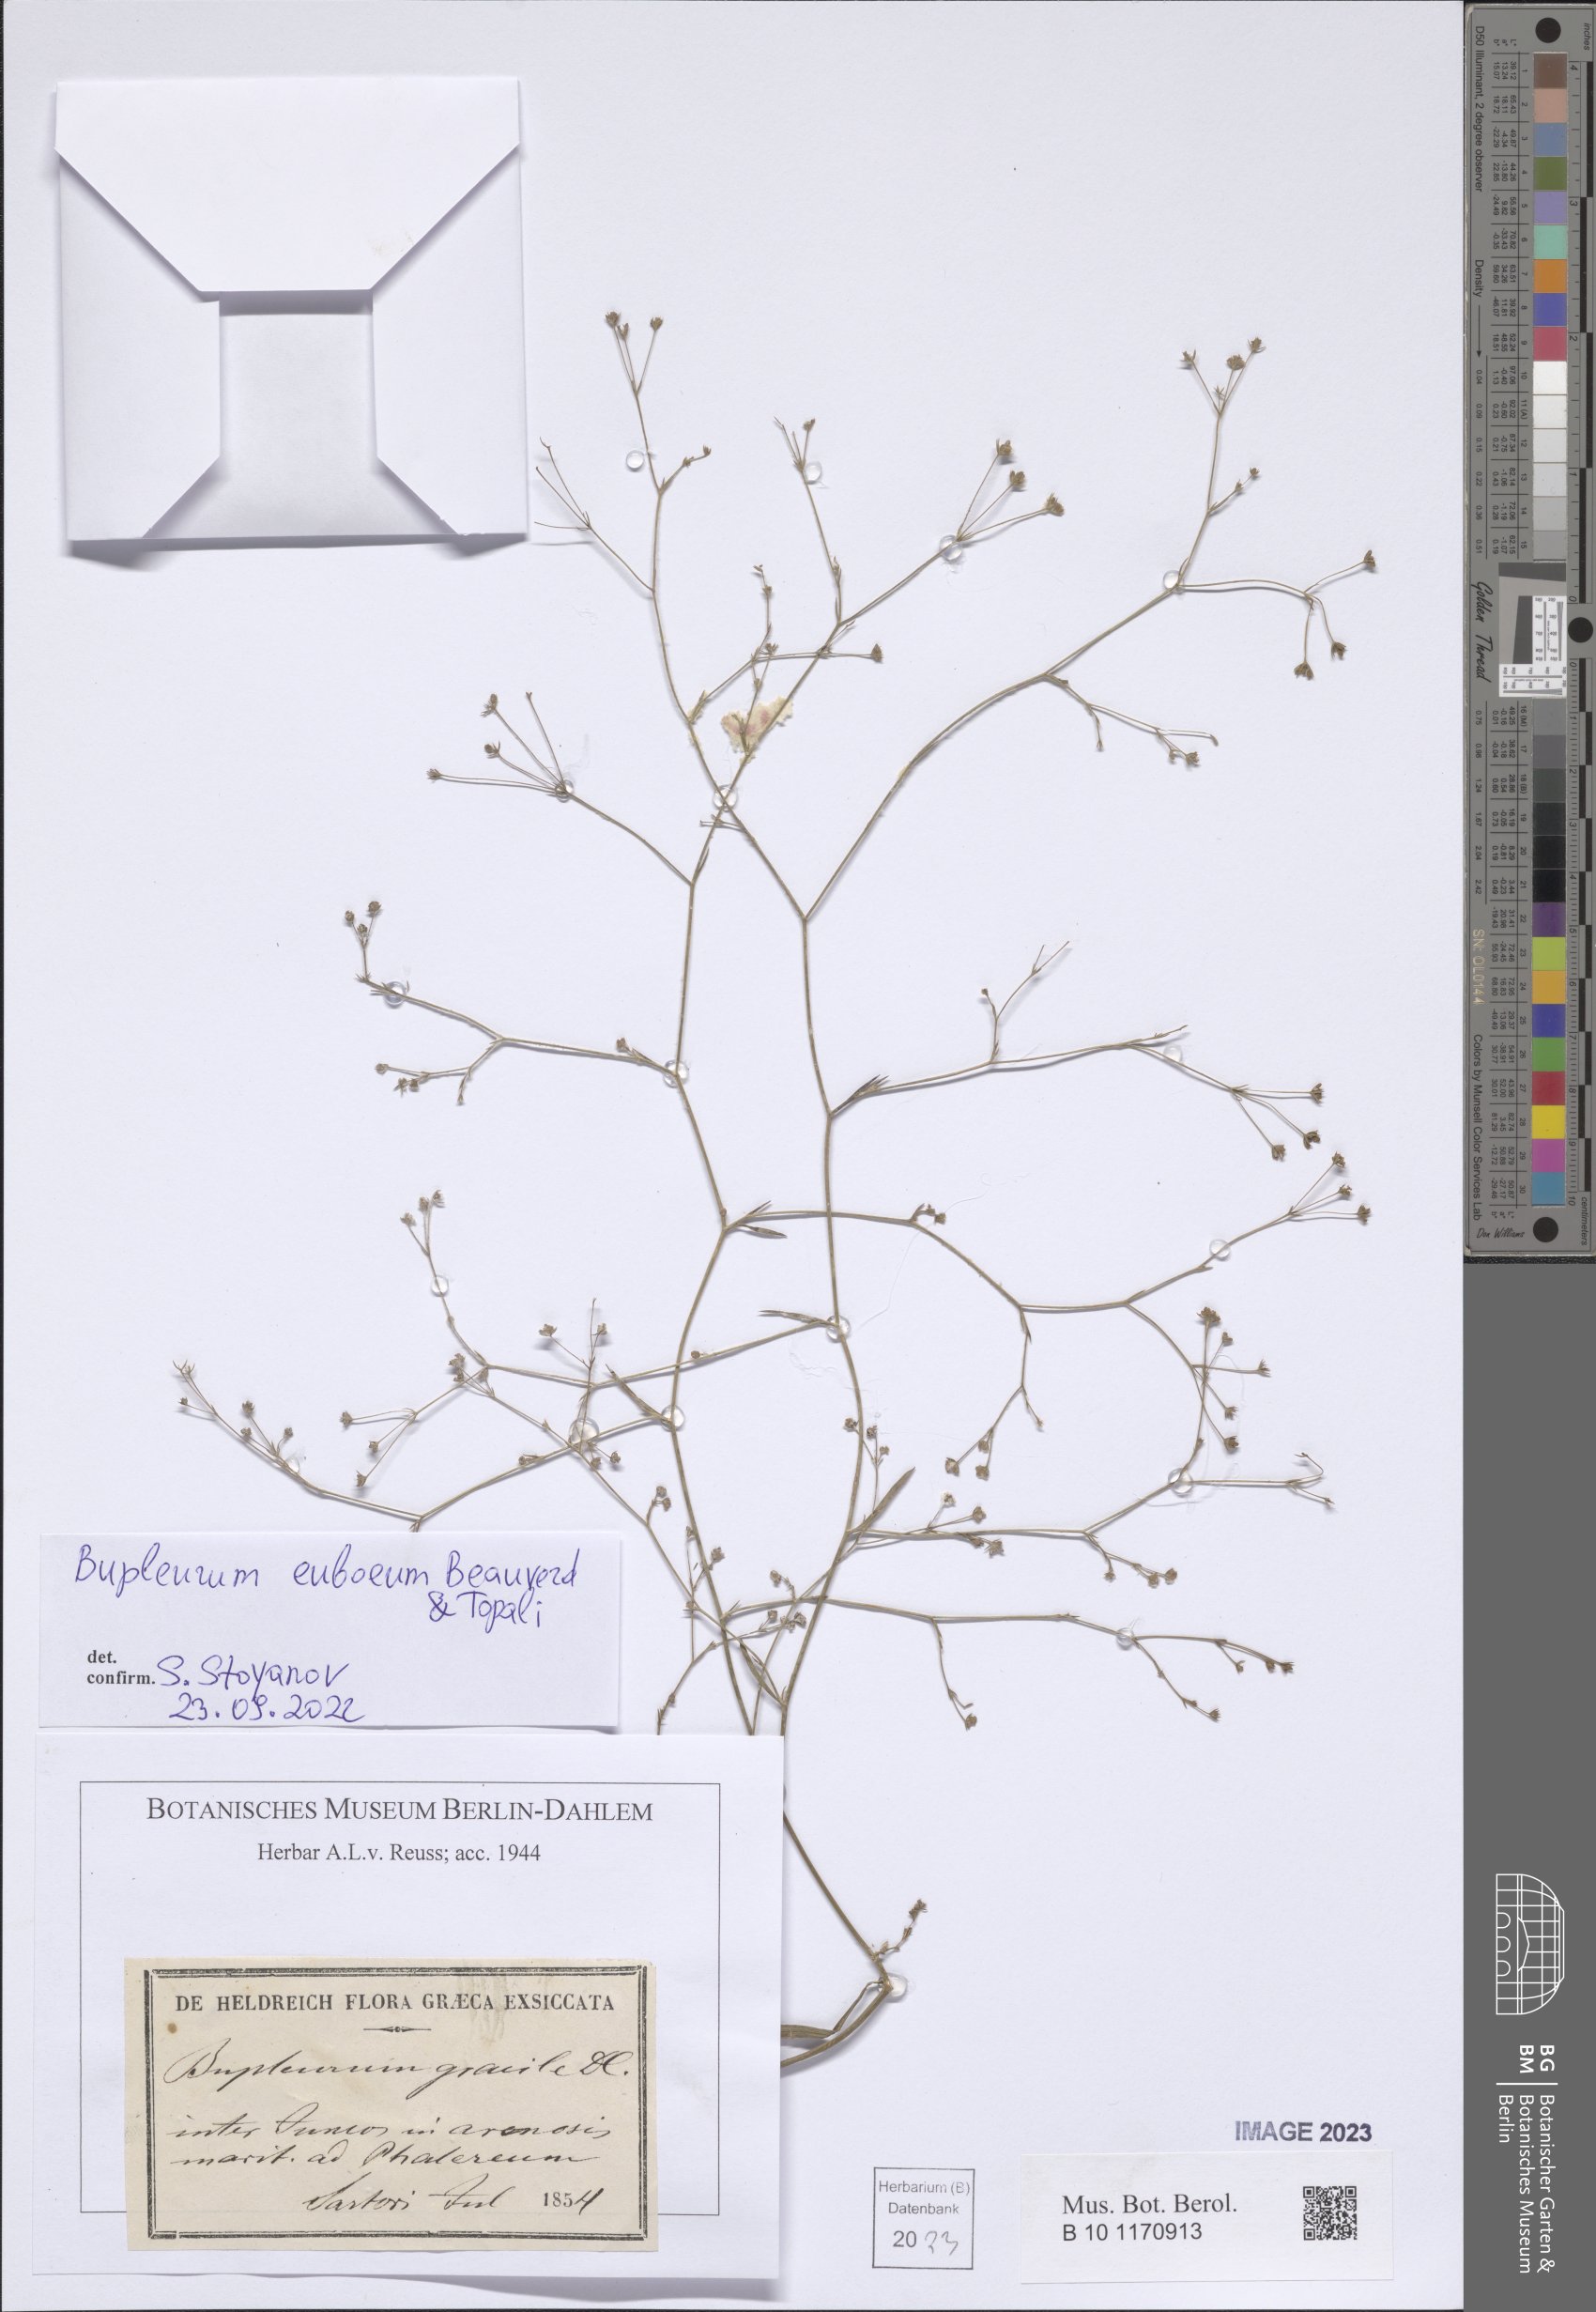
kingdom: Plantae
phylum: Tracheophyta
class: Magnoliopsida
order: Apiales
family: Apiaceae
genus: Bupleurum
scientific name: Bupleurum euboeum
